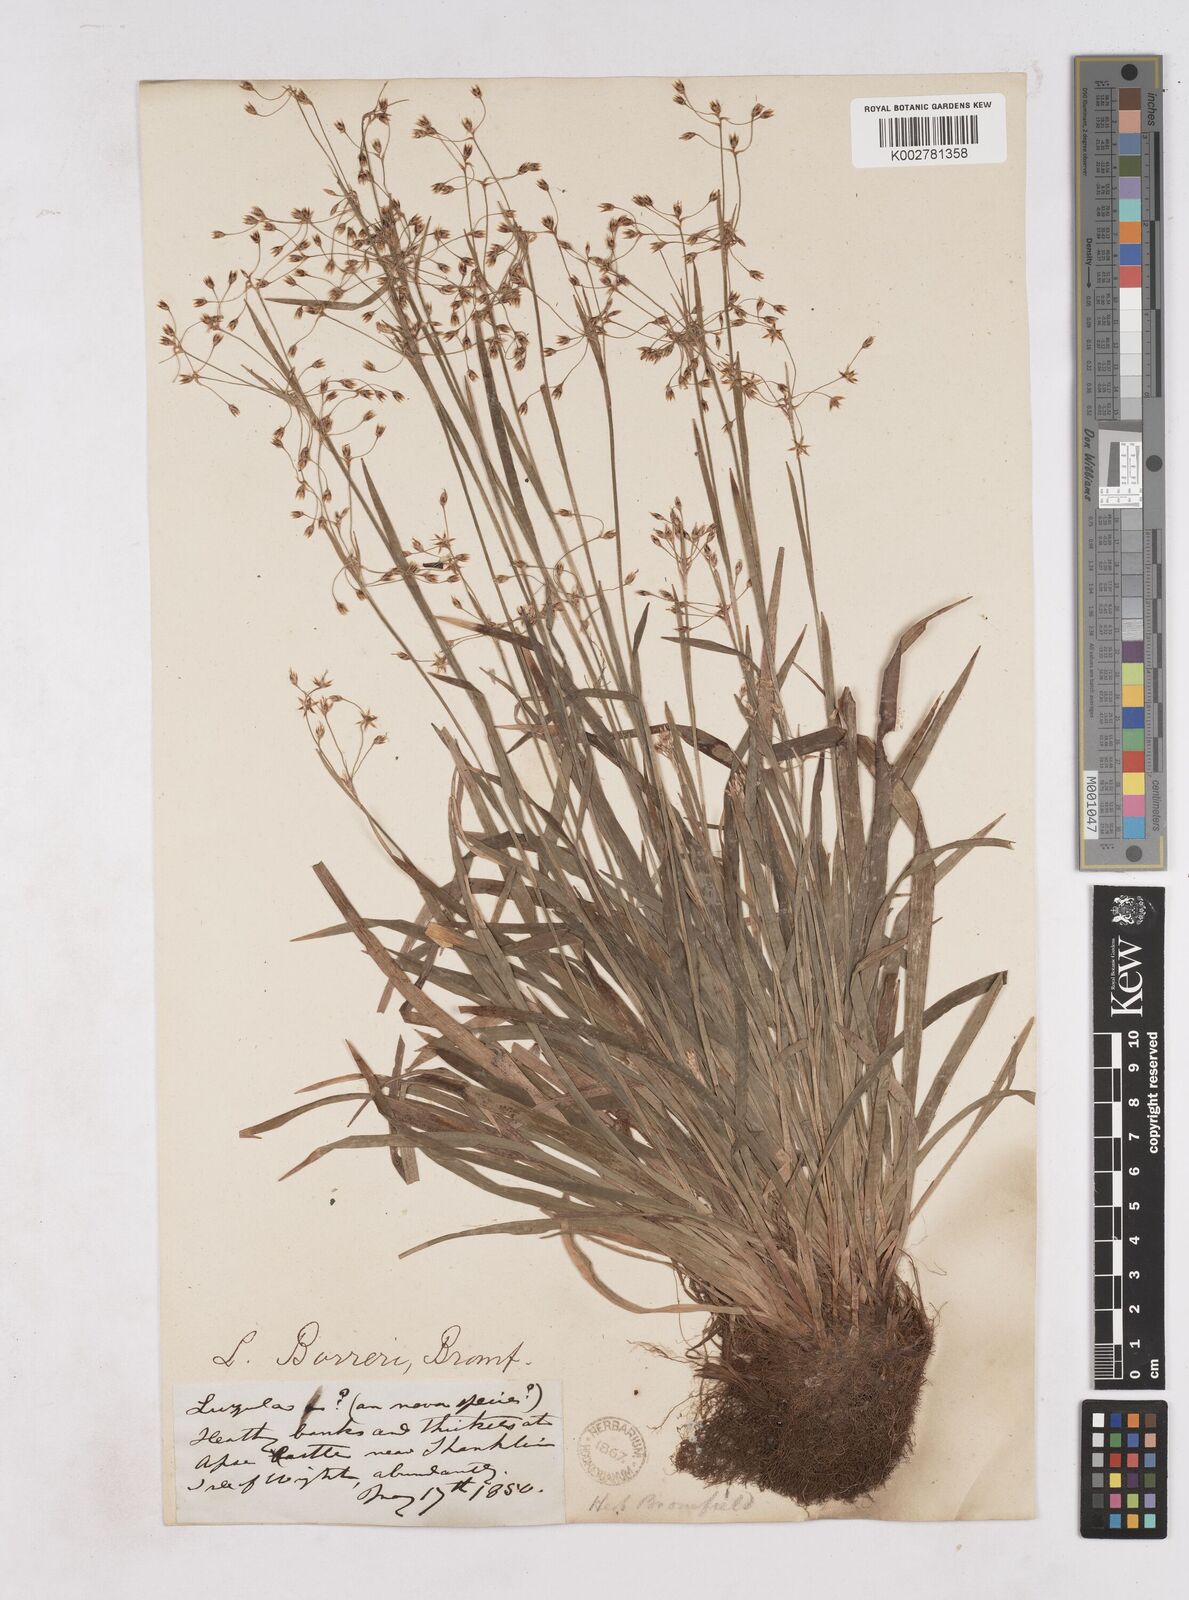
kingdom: Plantae
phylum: Tracheophyta
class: Liliopsida
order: Poales
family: Juncaceae
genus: Luzula
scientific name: Luzula pilosa
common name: Hairy wood-rush
